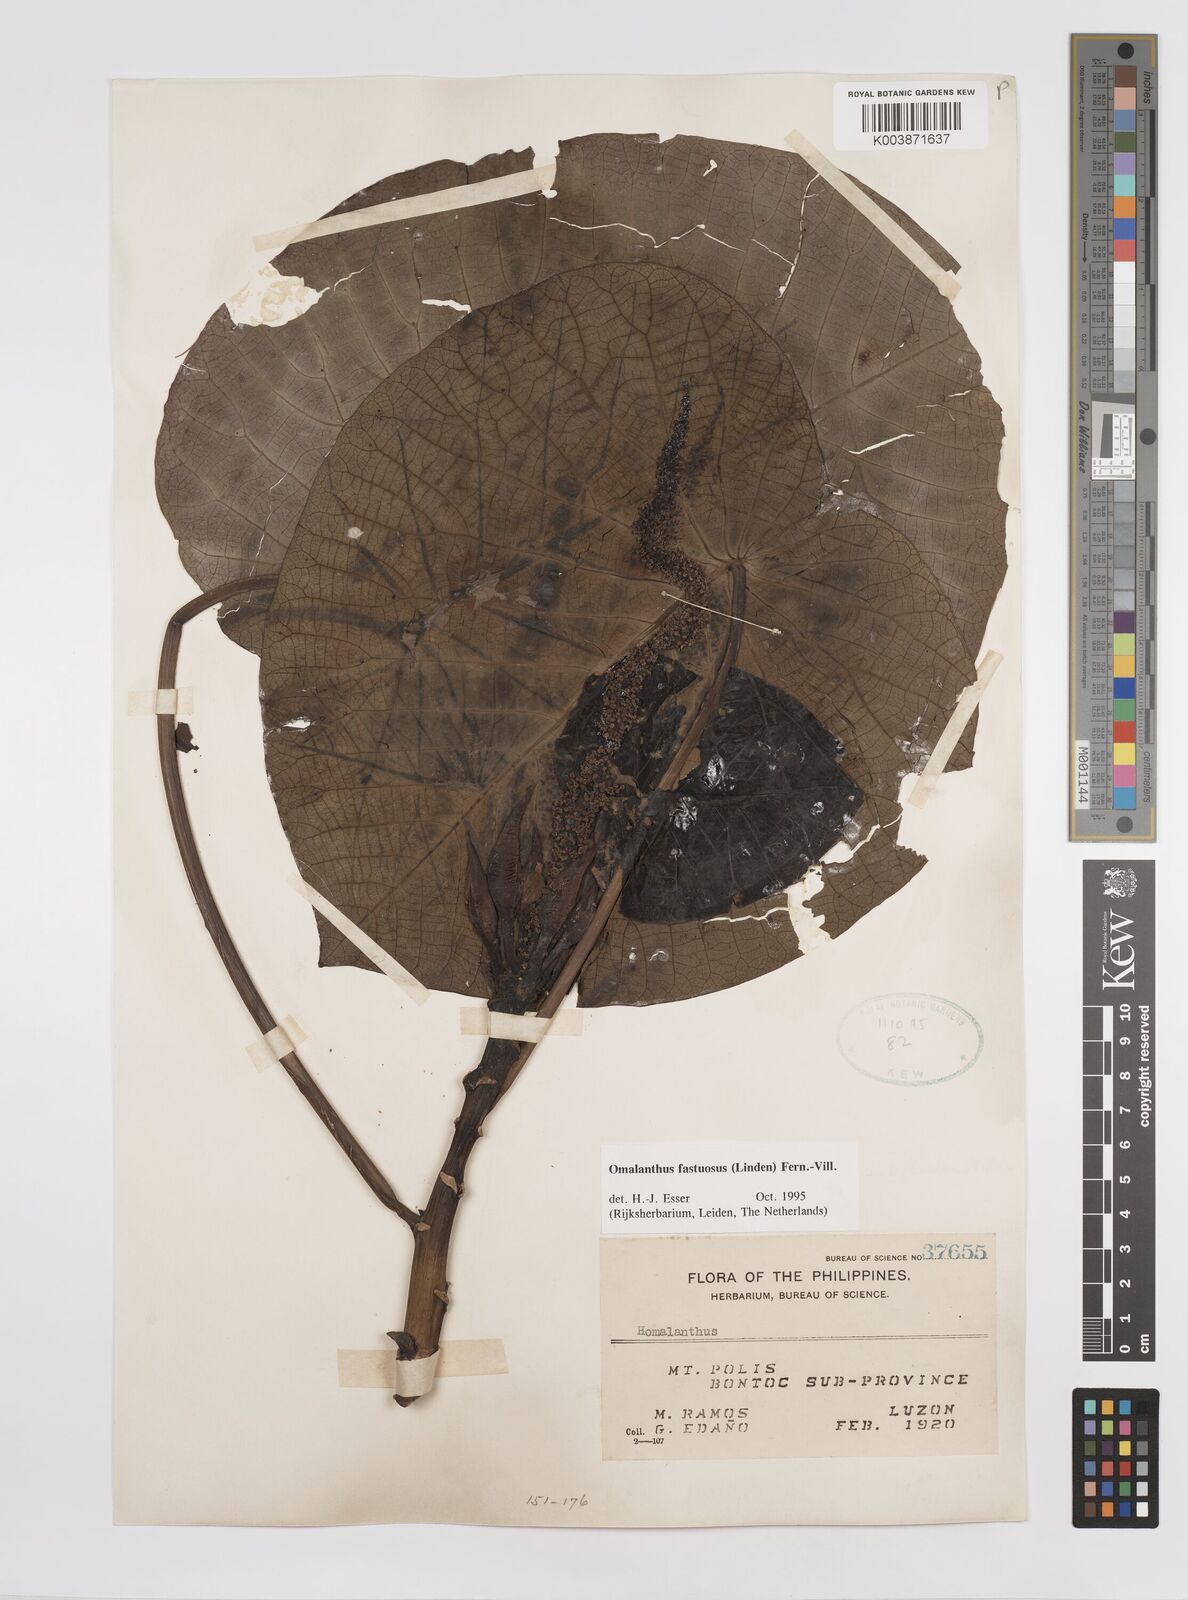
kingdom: Plantae
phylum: Tracheophyta
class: Magnoliopsida
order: Malpighiales
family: Euphorbiaceae
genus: Homalanthus
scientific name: Homalanthus fastuosus
